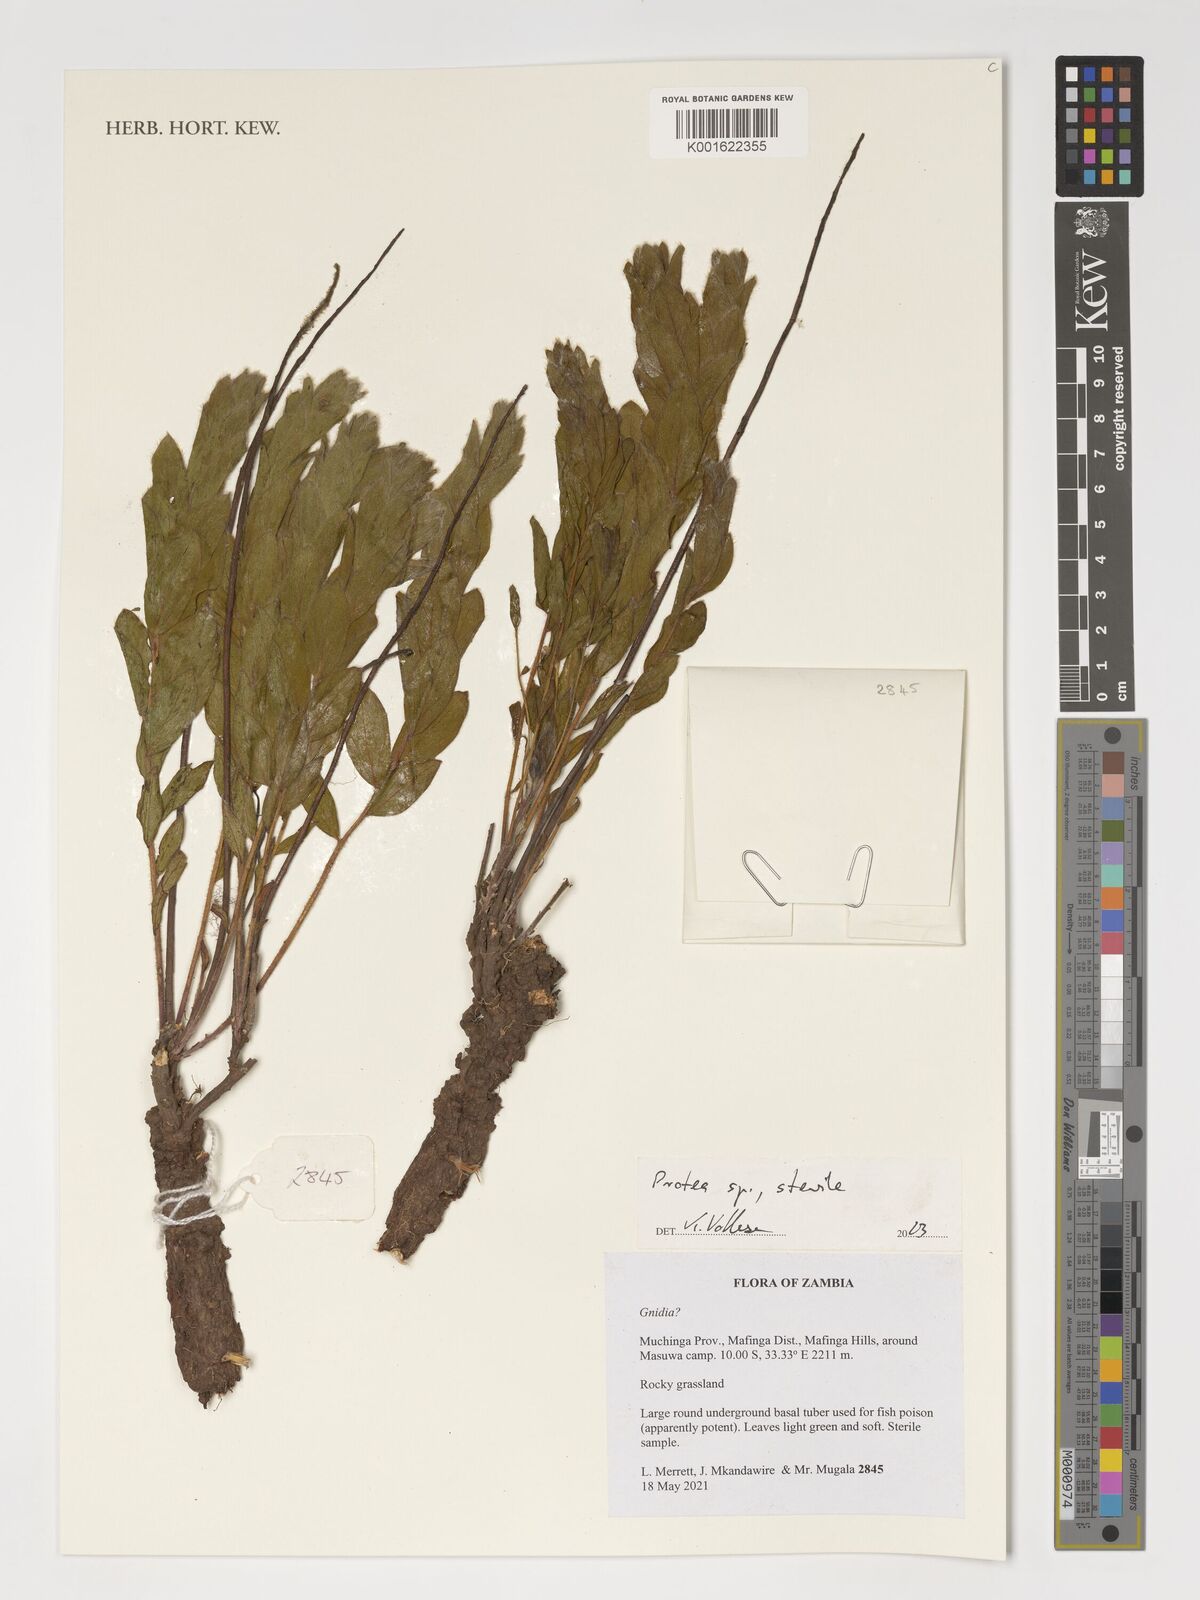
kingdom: Plantae
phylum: Tracheophyta
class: Magnoliopsida
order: Proteales
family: Proteaceae
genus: Protea
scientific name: Protea
